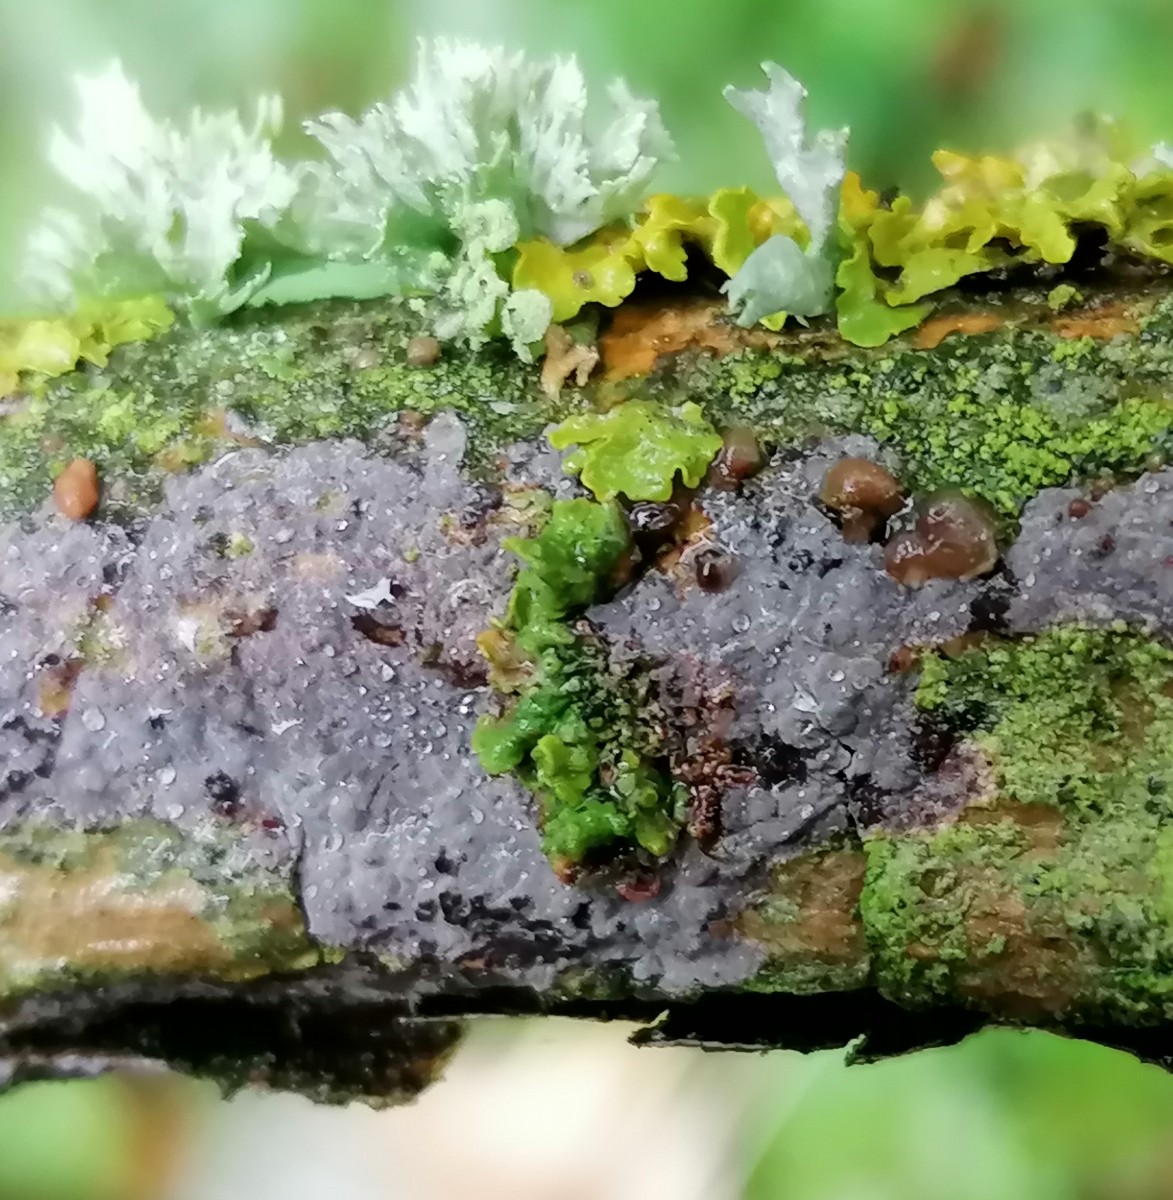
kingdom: Fungi
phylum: Basidiomycota
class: Tremellomycetes
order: Tremellales
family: Tremellaceae
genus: Tremella
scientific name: Tremella versicolor
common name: voksskind-bævresvamp
